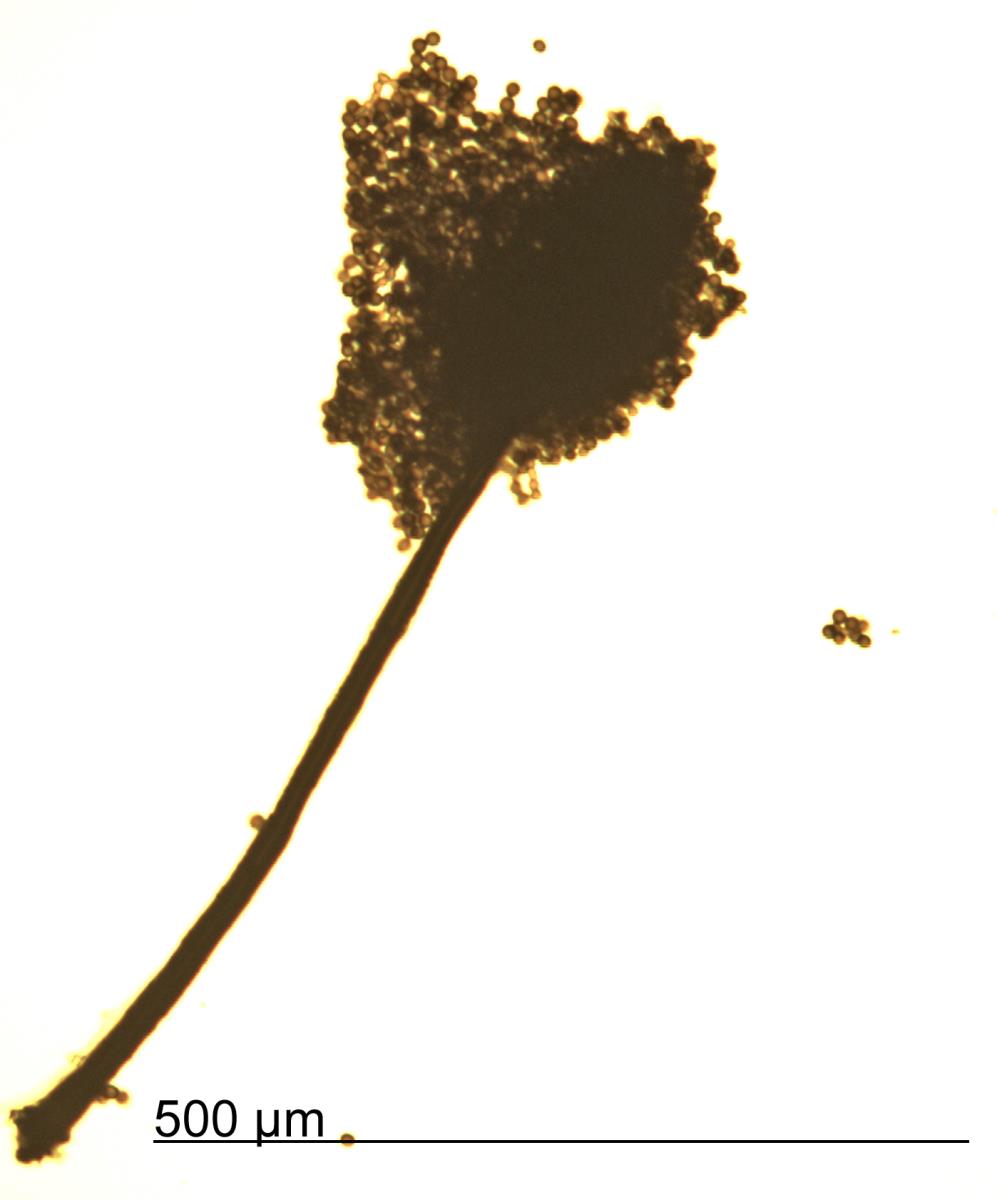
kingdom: Fungi
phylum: Ascomycota
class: Dothideomycetes
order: Pleosporales
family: Periconiaceae
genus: Periconia
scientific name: Periconia atra
